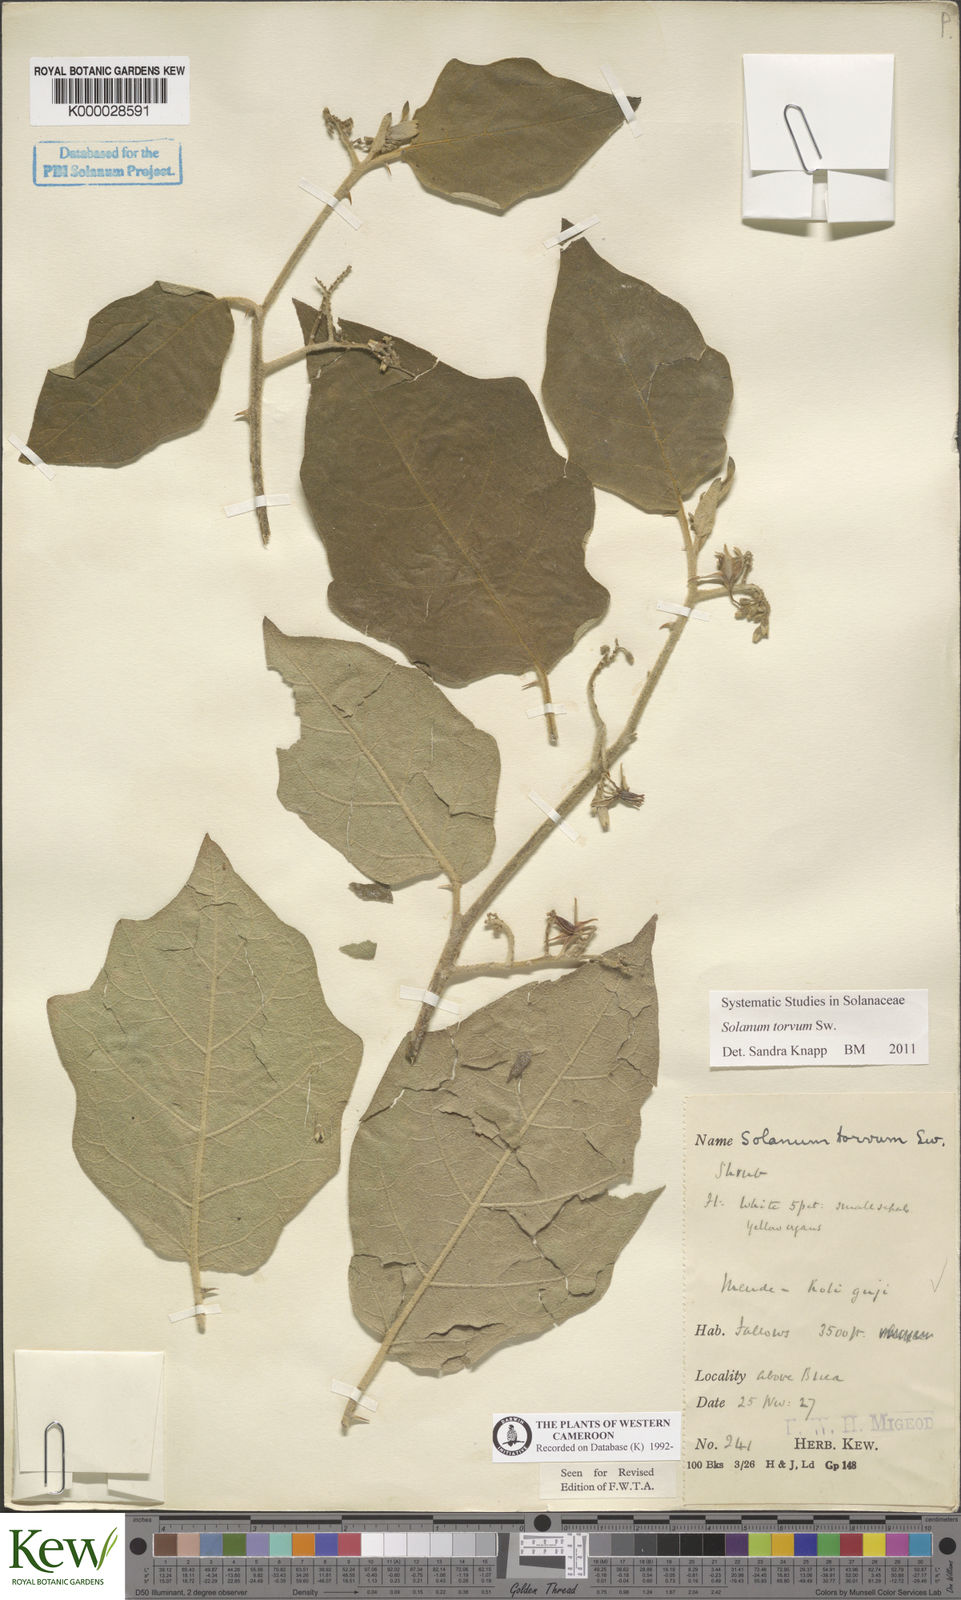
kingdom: Plantae
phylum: Tracheophyta
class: Magnoliopsida
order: Solanales
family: Solanaceae
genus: Solanum
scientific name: Solanum torvum
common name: Turkey berry
